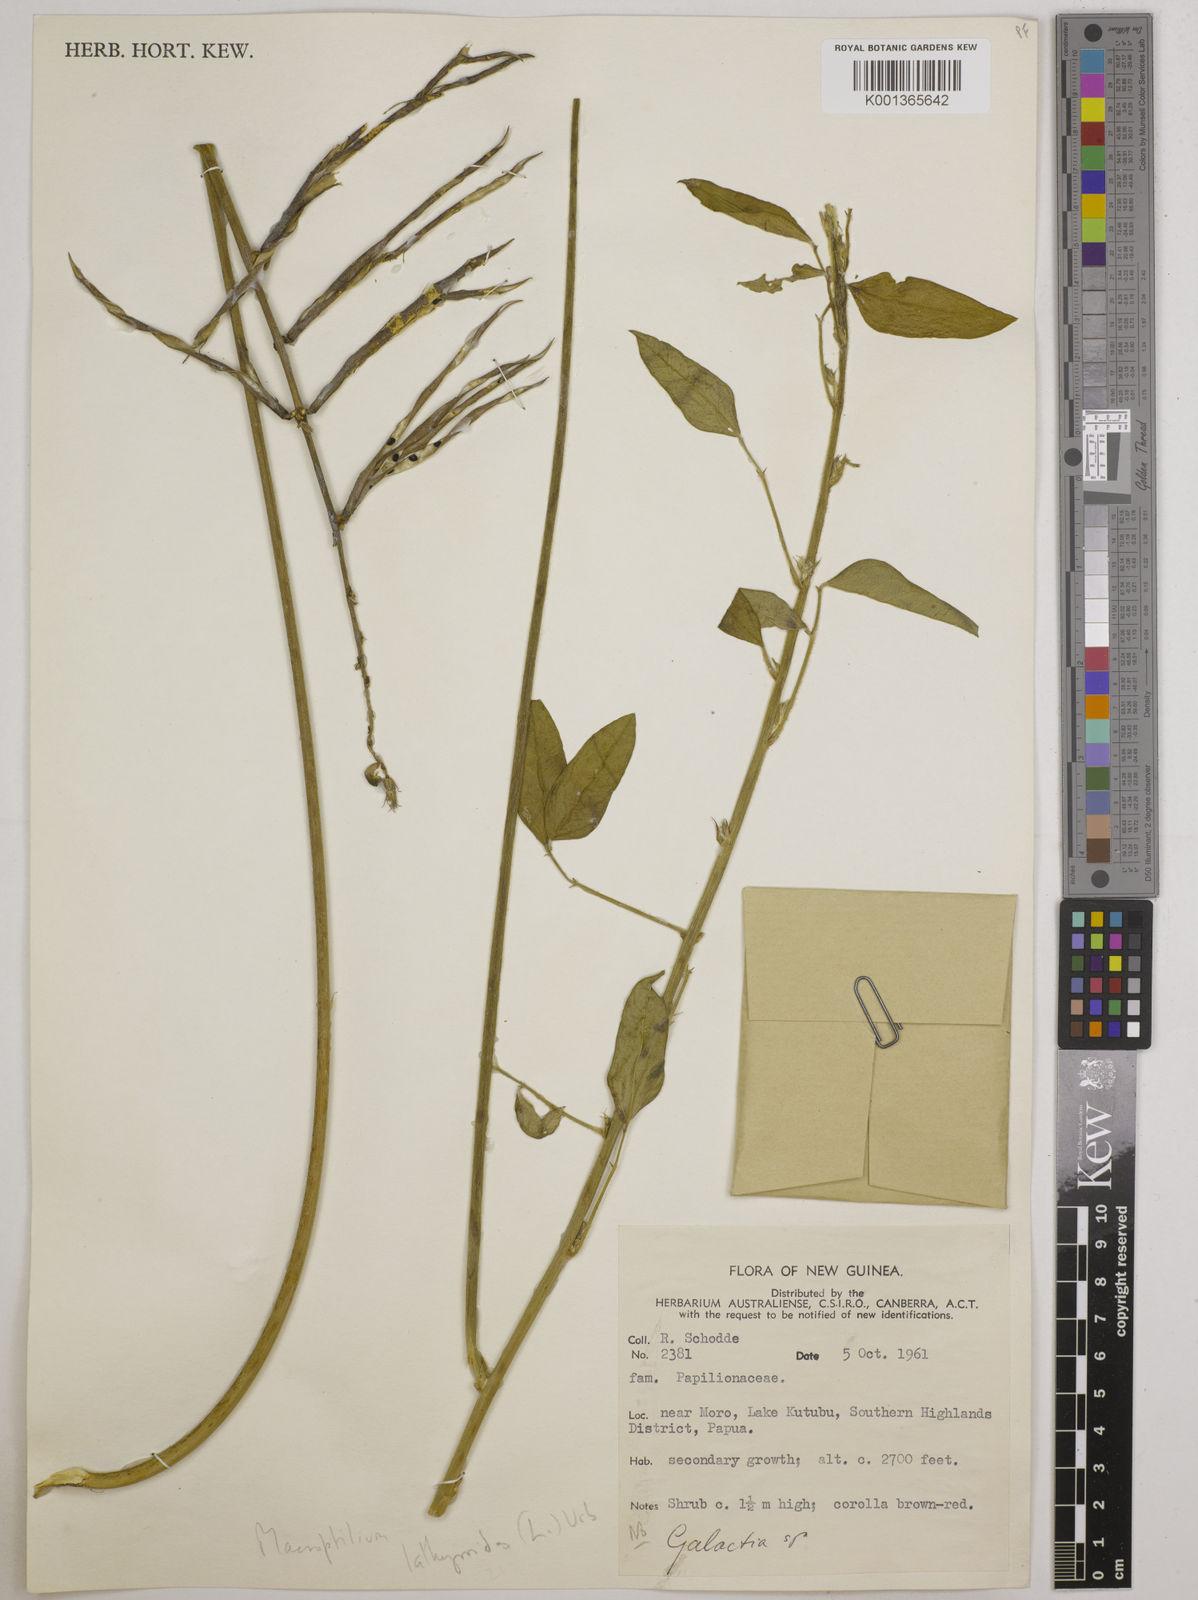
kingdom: Plantae
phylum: Tracheophyta
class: Magnoliopsida
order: Fabales
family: Fabaceae
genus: Macroptilium
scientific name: Macroptilium lathyroides
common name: Wild bushbean
